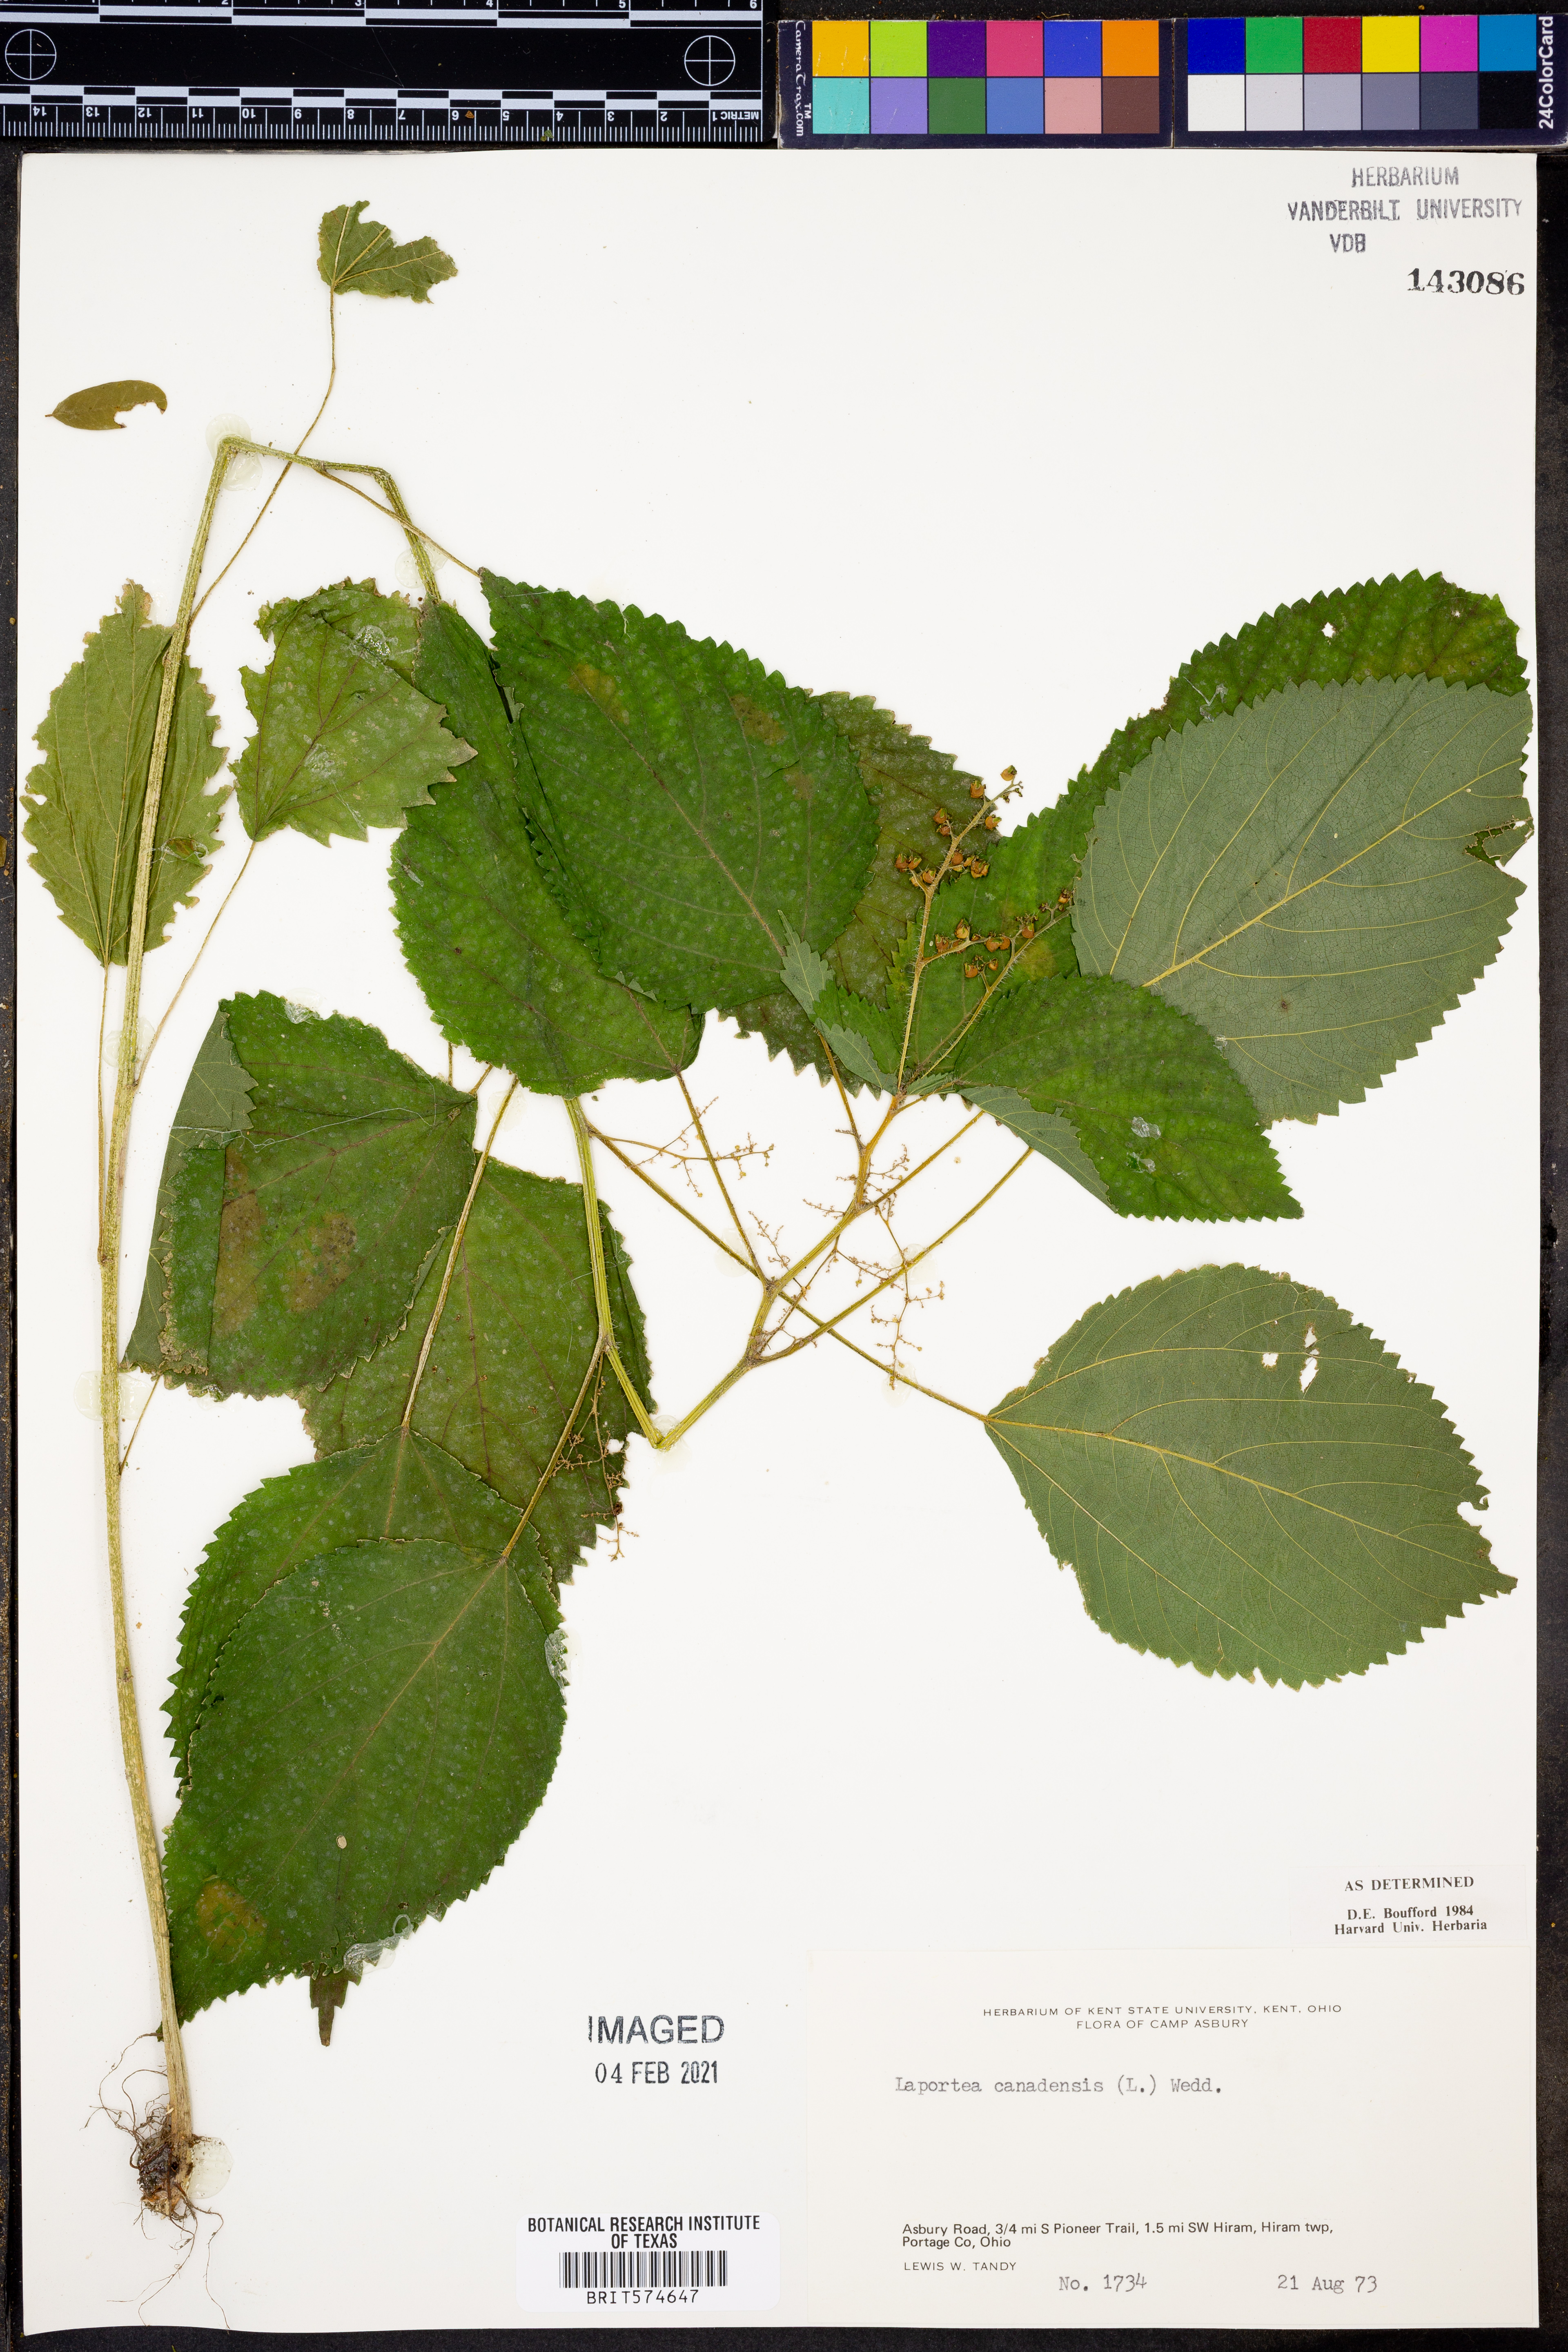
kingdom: Plantae
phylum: Tracheophyta
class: Magnoliopsida
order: Rosales
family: Urticaceae
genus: Laportea
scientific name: Laportea canadensis
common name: Canada nettle
